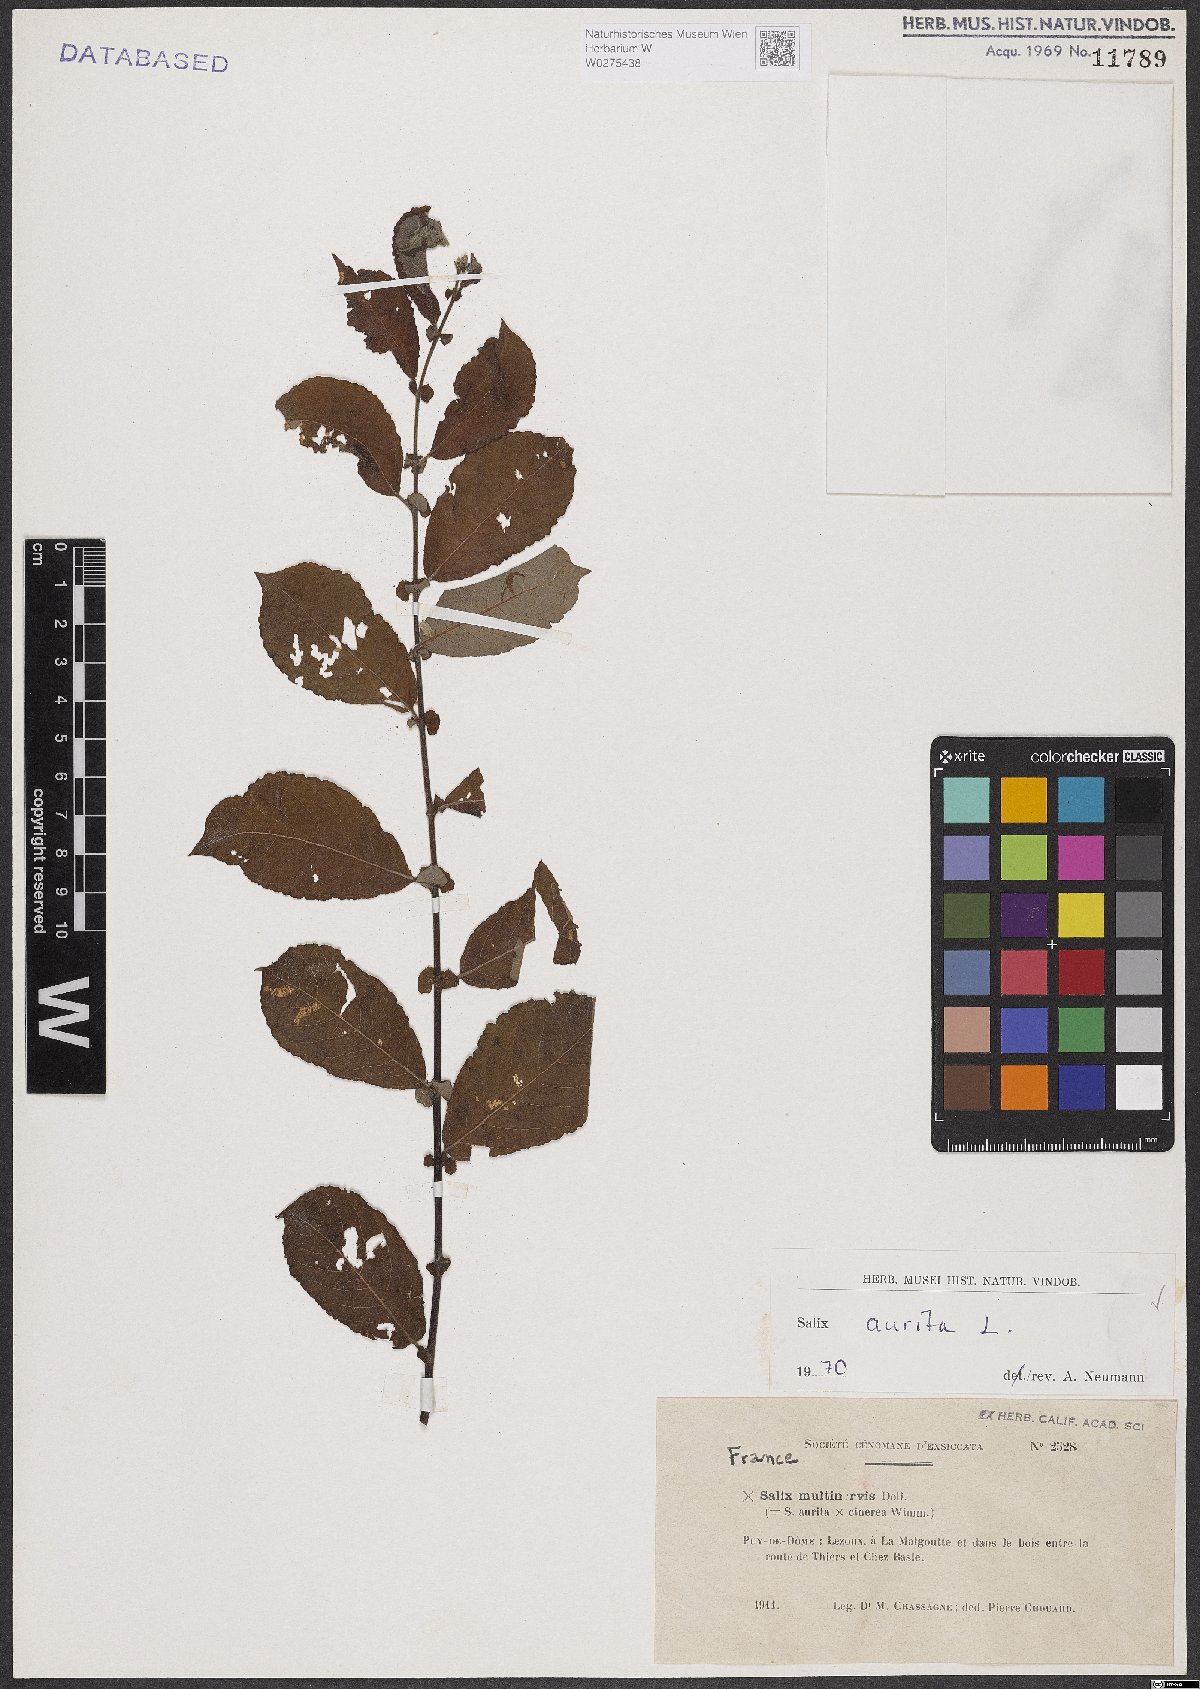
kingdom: Plantae
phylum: Tracheophyta
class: Magnoliopsida
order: Malpighiales
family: Salicaceae
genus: Salix
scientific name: Salix aurita
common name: Eared willow
